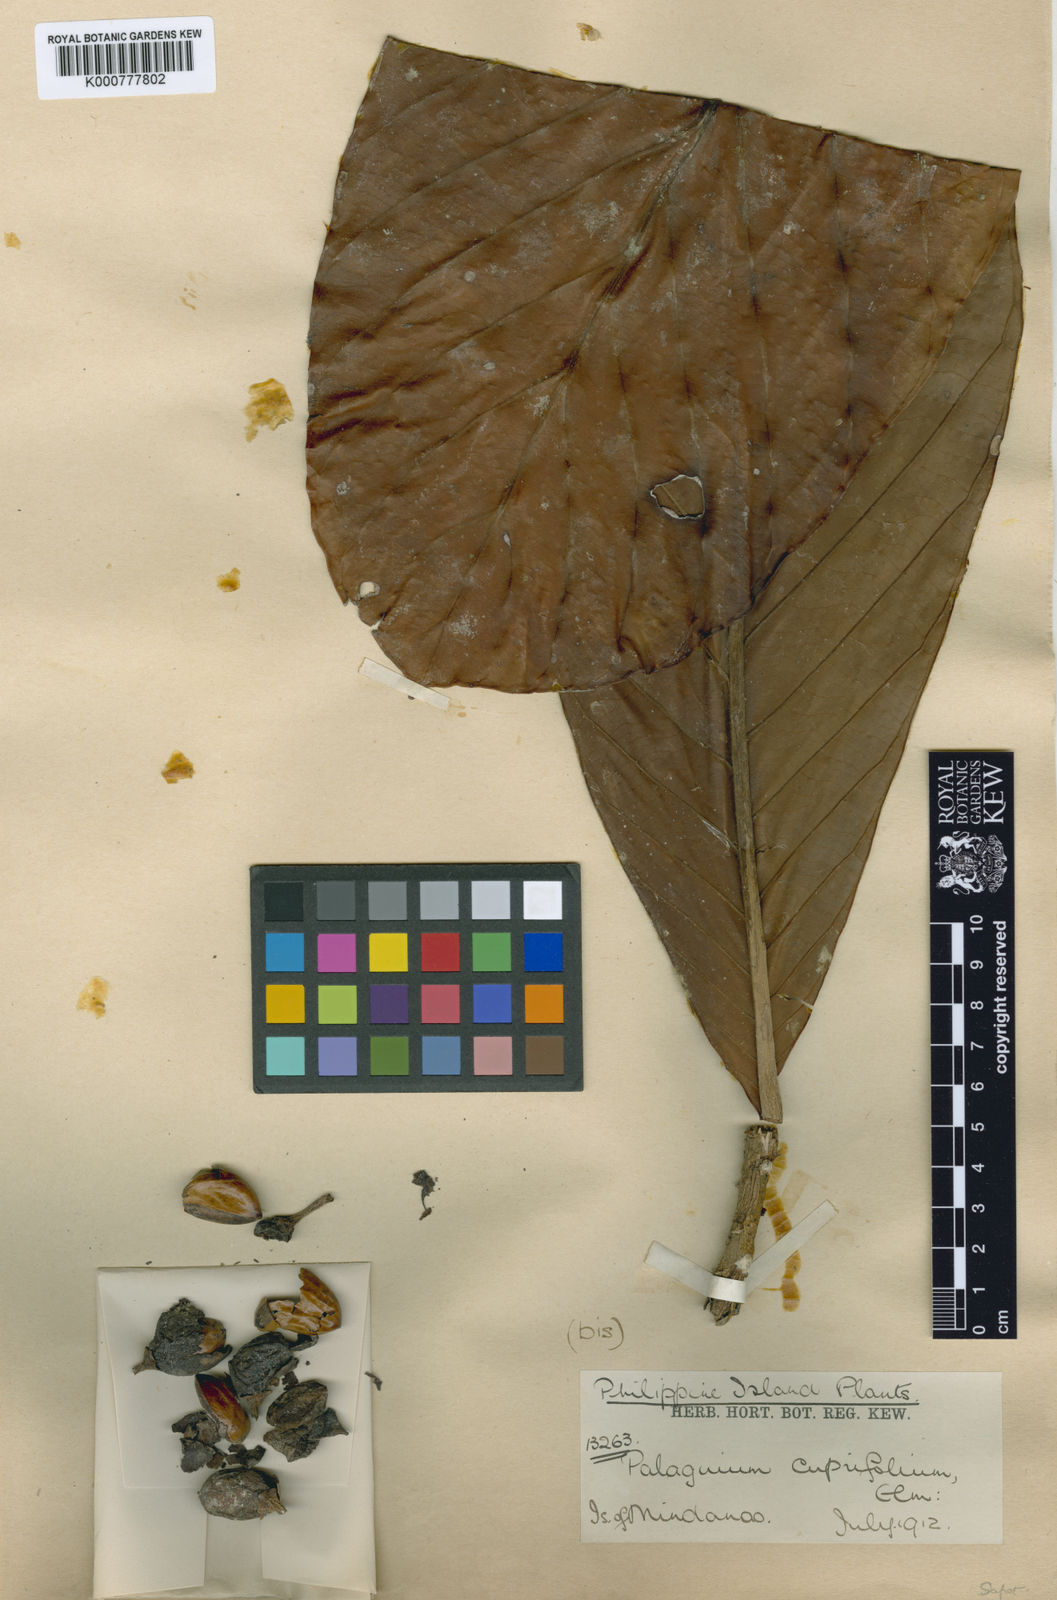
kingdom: Plantae
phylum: Tracheophyta
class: Magnoliopsida
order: Ericales
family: Sapotaceae
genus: Palaquium
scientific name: Palaquium cuprifolium
